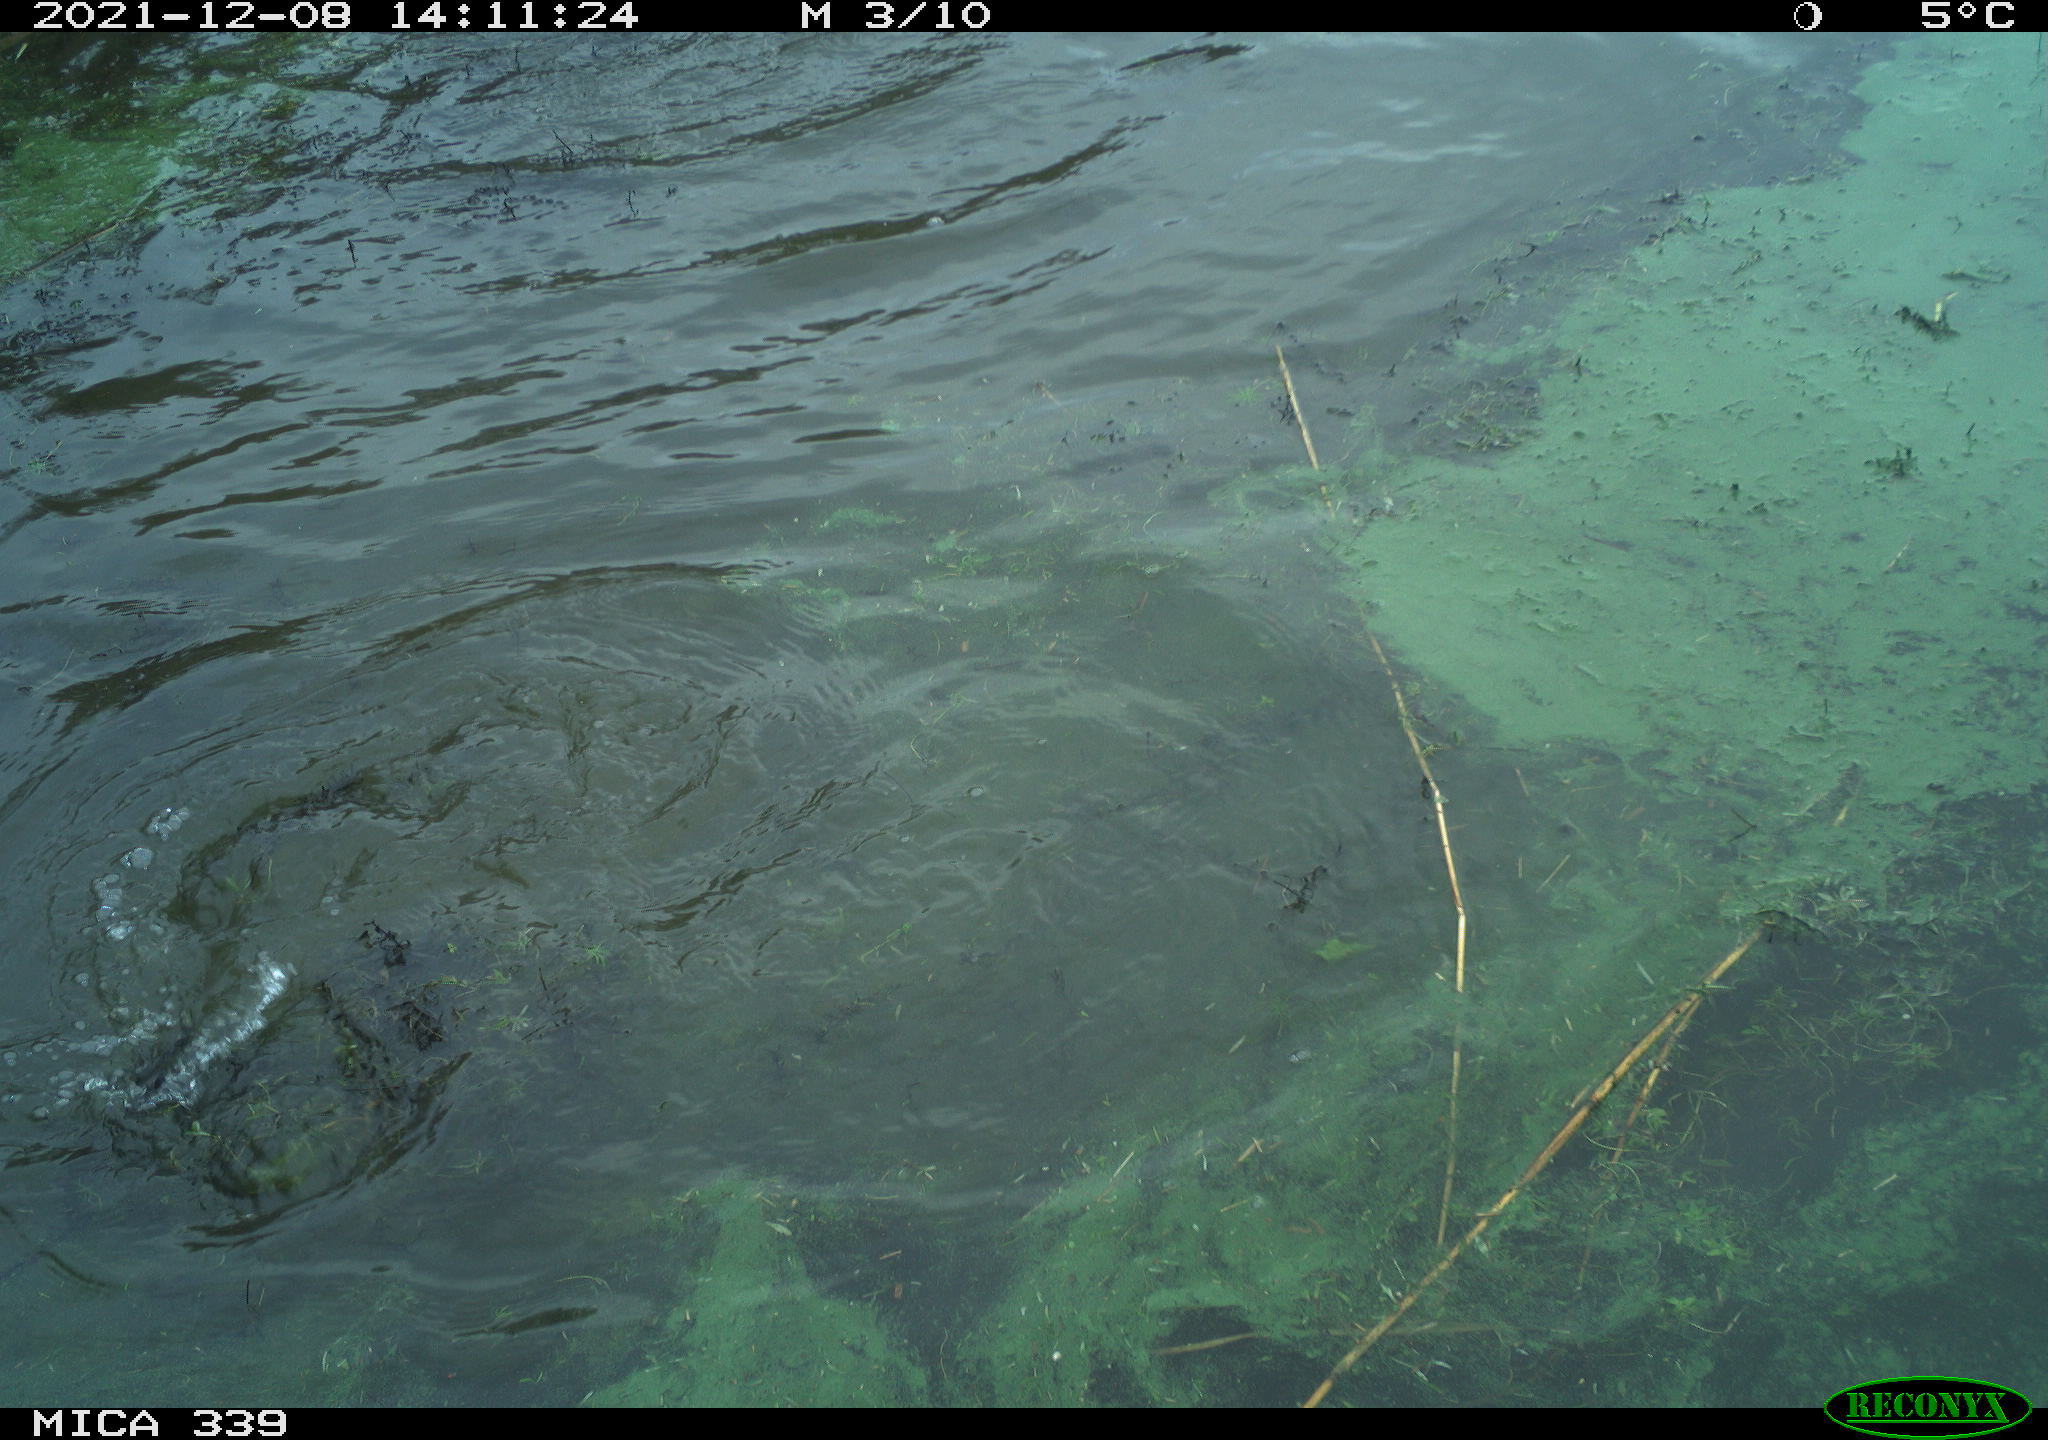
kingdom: Animalia
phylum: Chordata
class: Aves
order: Suliformes
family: Phalacrocoracidae
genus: Phalacrocorax
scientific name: Phalacrocorax carbo
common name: Great cormorant
